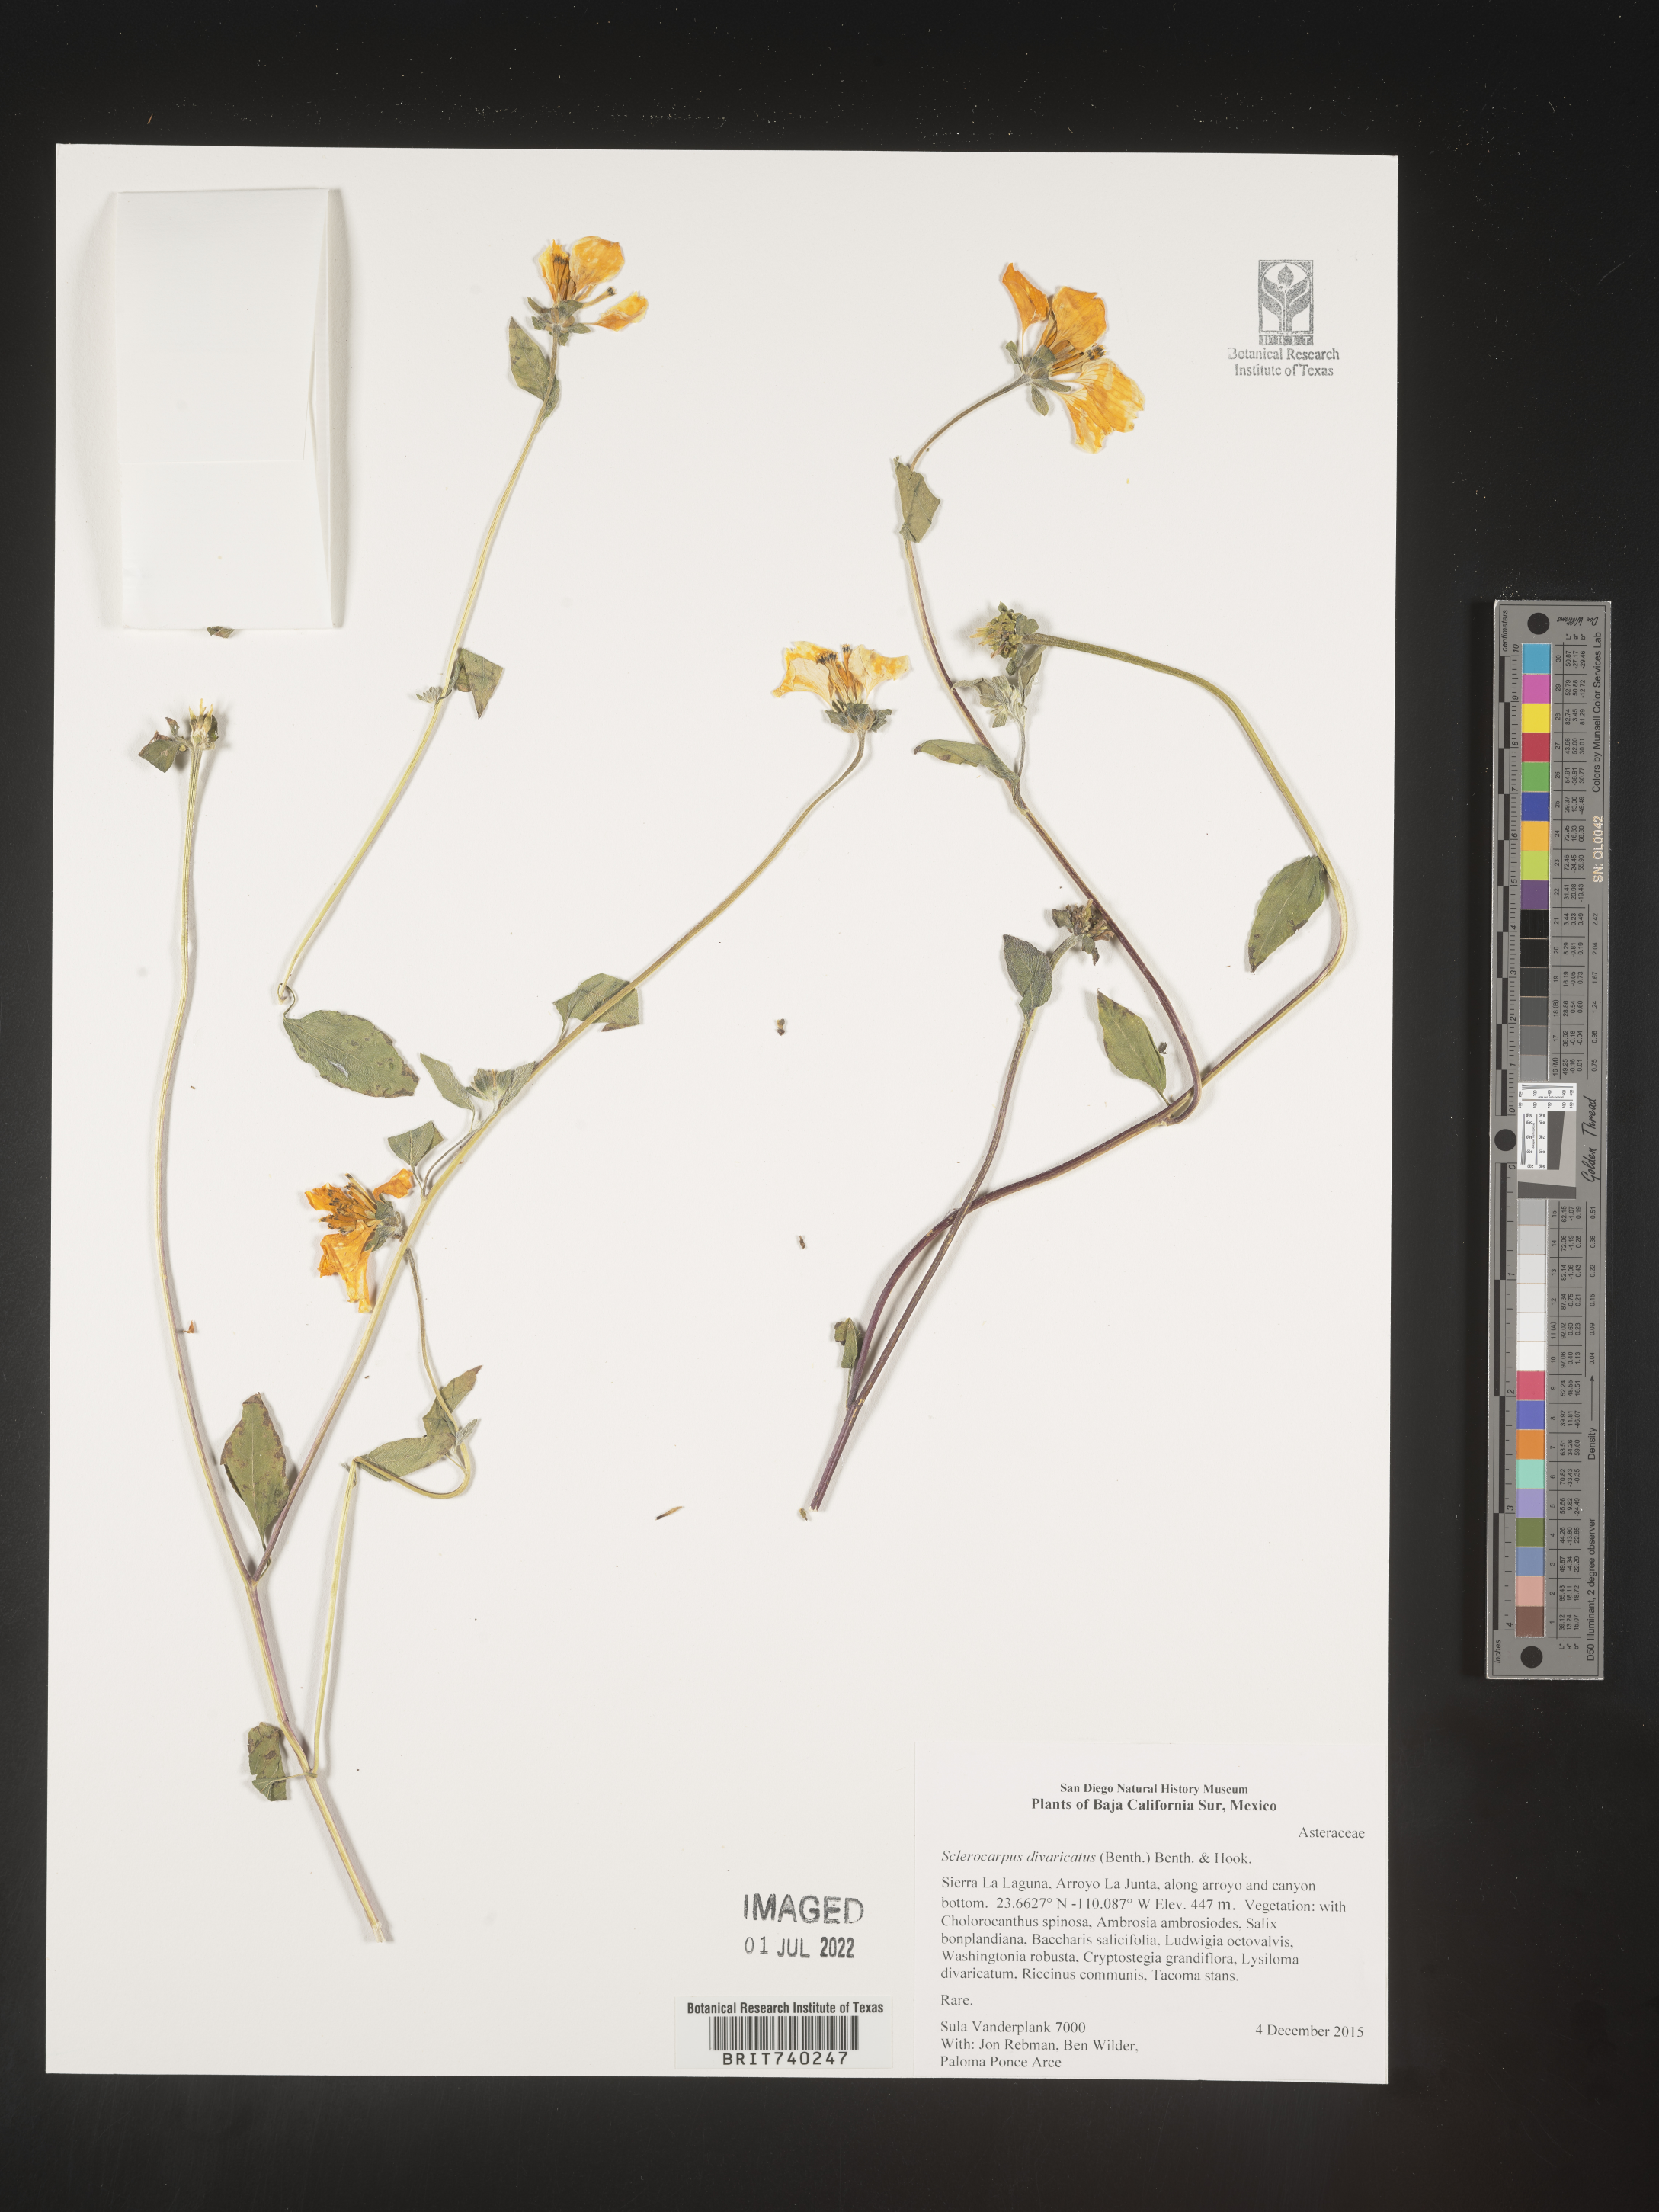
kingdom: Plantae
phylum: Tracheophyta
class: Magnoliopsida
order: Asterales
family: Asteraceae
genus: Sclerocarpus
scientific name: Sclerocarpus
